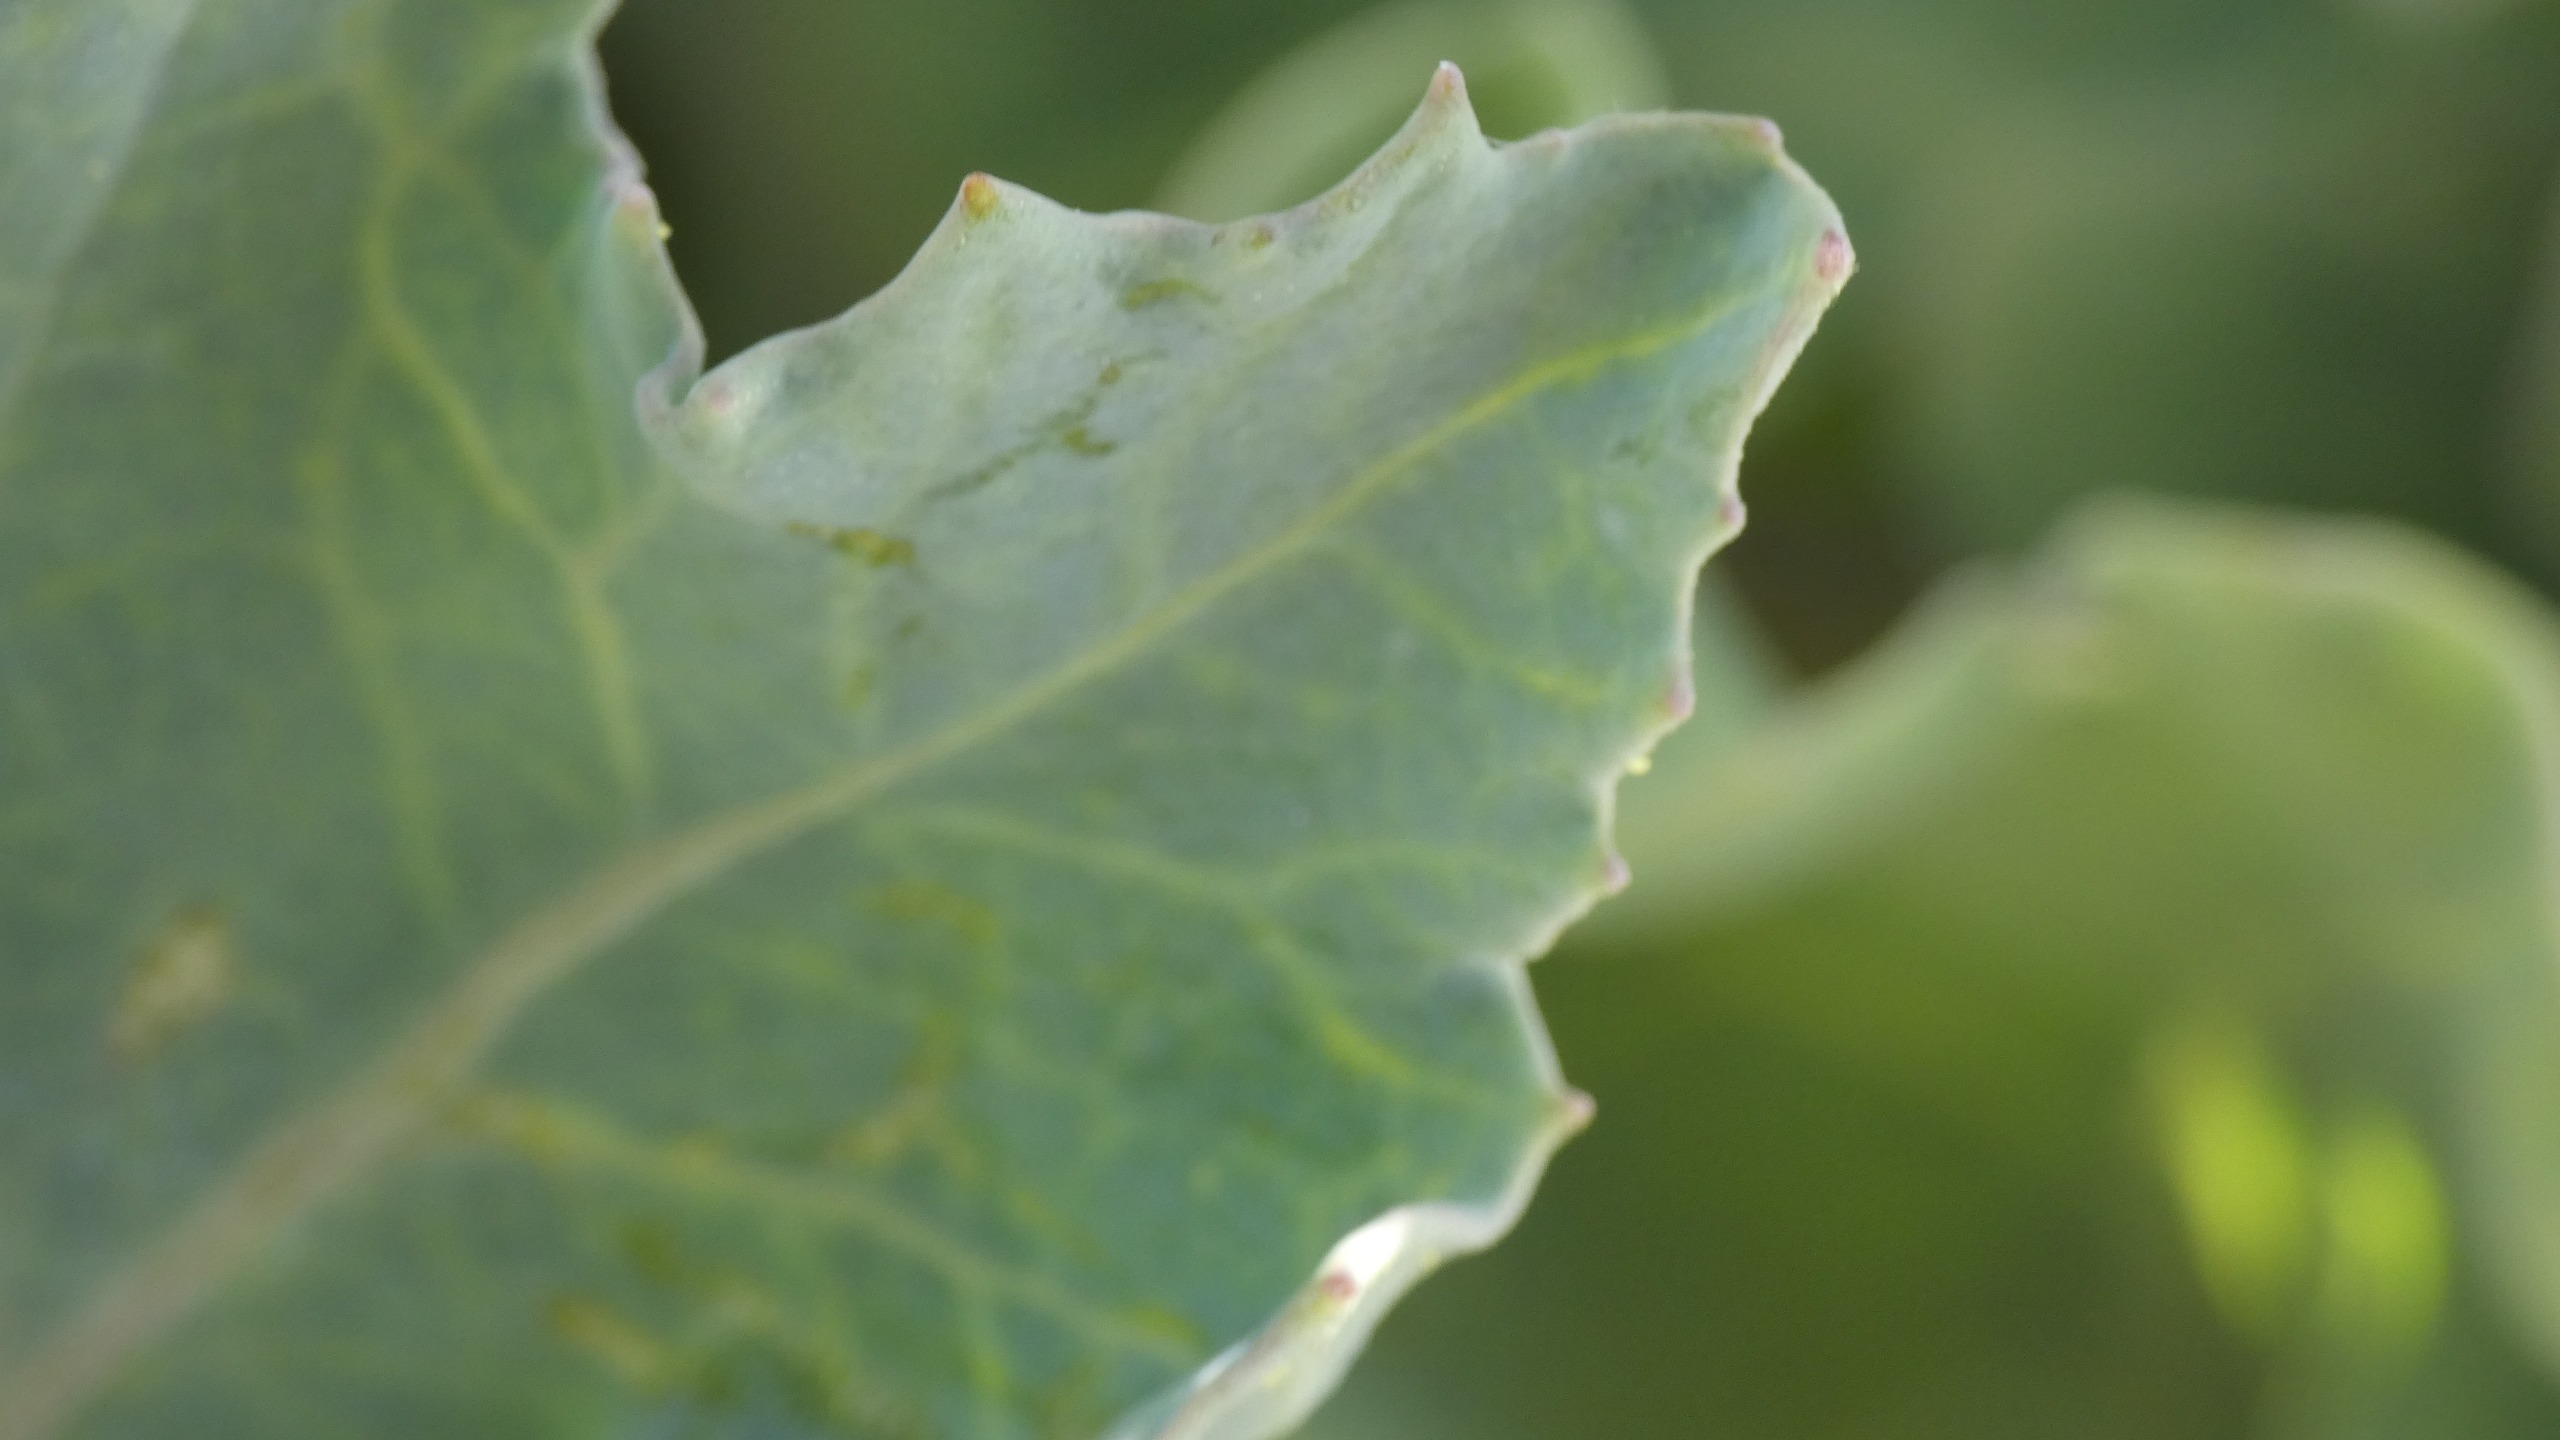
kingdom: Plantae
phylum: Tracheophyta
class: Magnoliopsida
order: Brassicales
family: Brassicaceae
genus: Crambe
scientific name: Crambe maritima
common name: Strandkål
